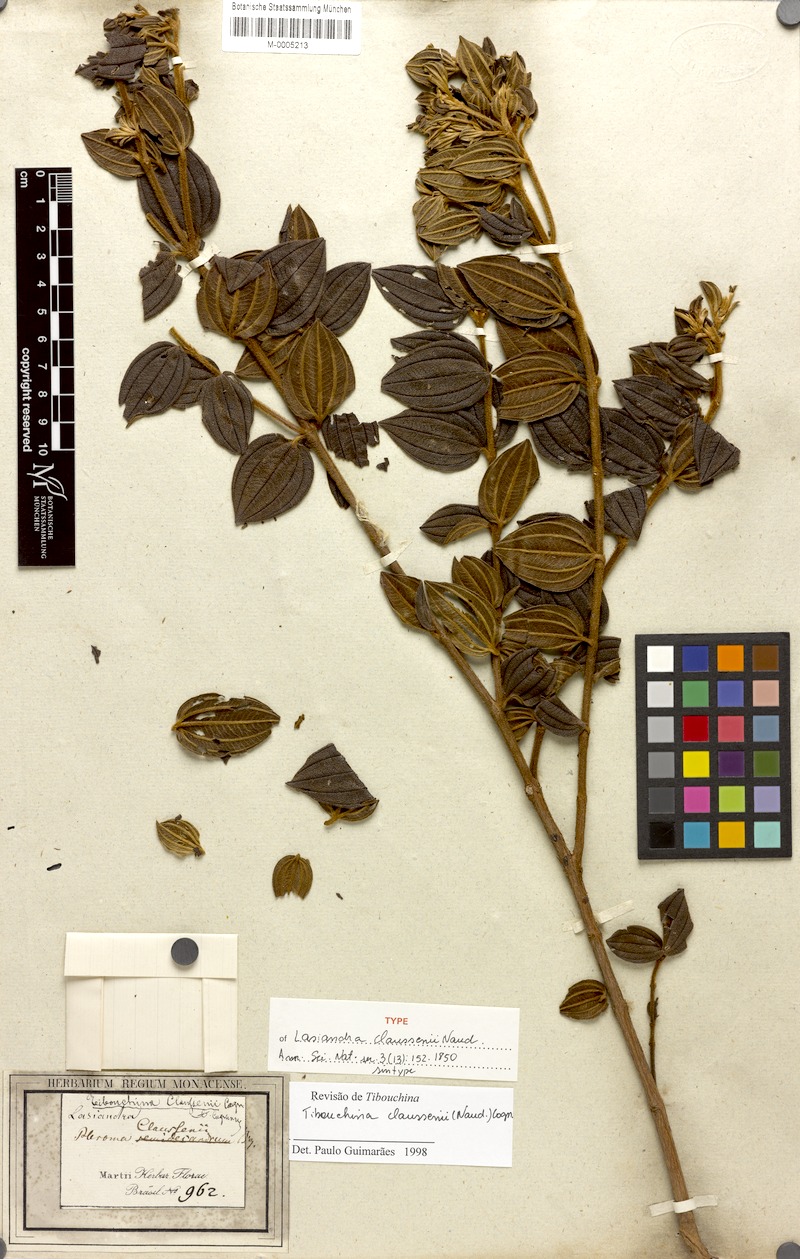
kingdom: Plantae
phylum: Tracheophyta
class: Magnoliopsida
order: Myrtales
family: Melastomataceae
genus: Pleroma
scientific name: Pleroma claussenii
